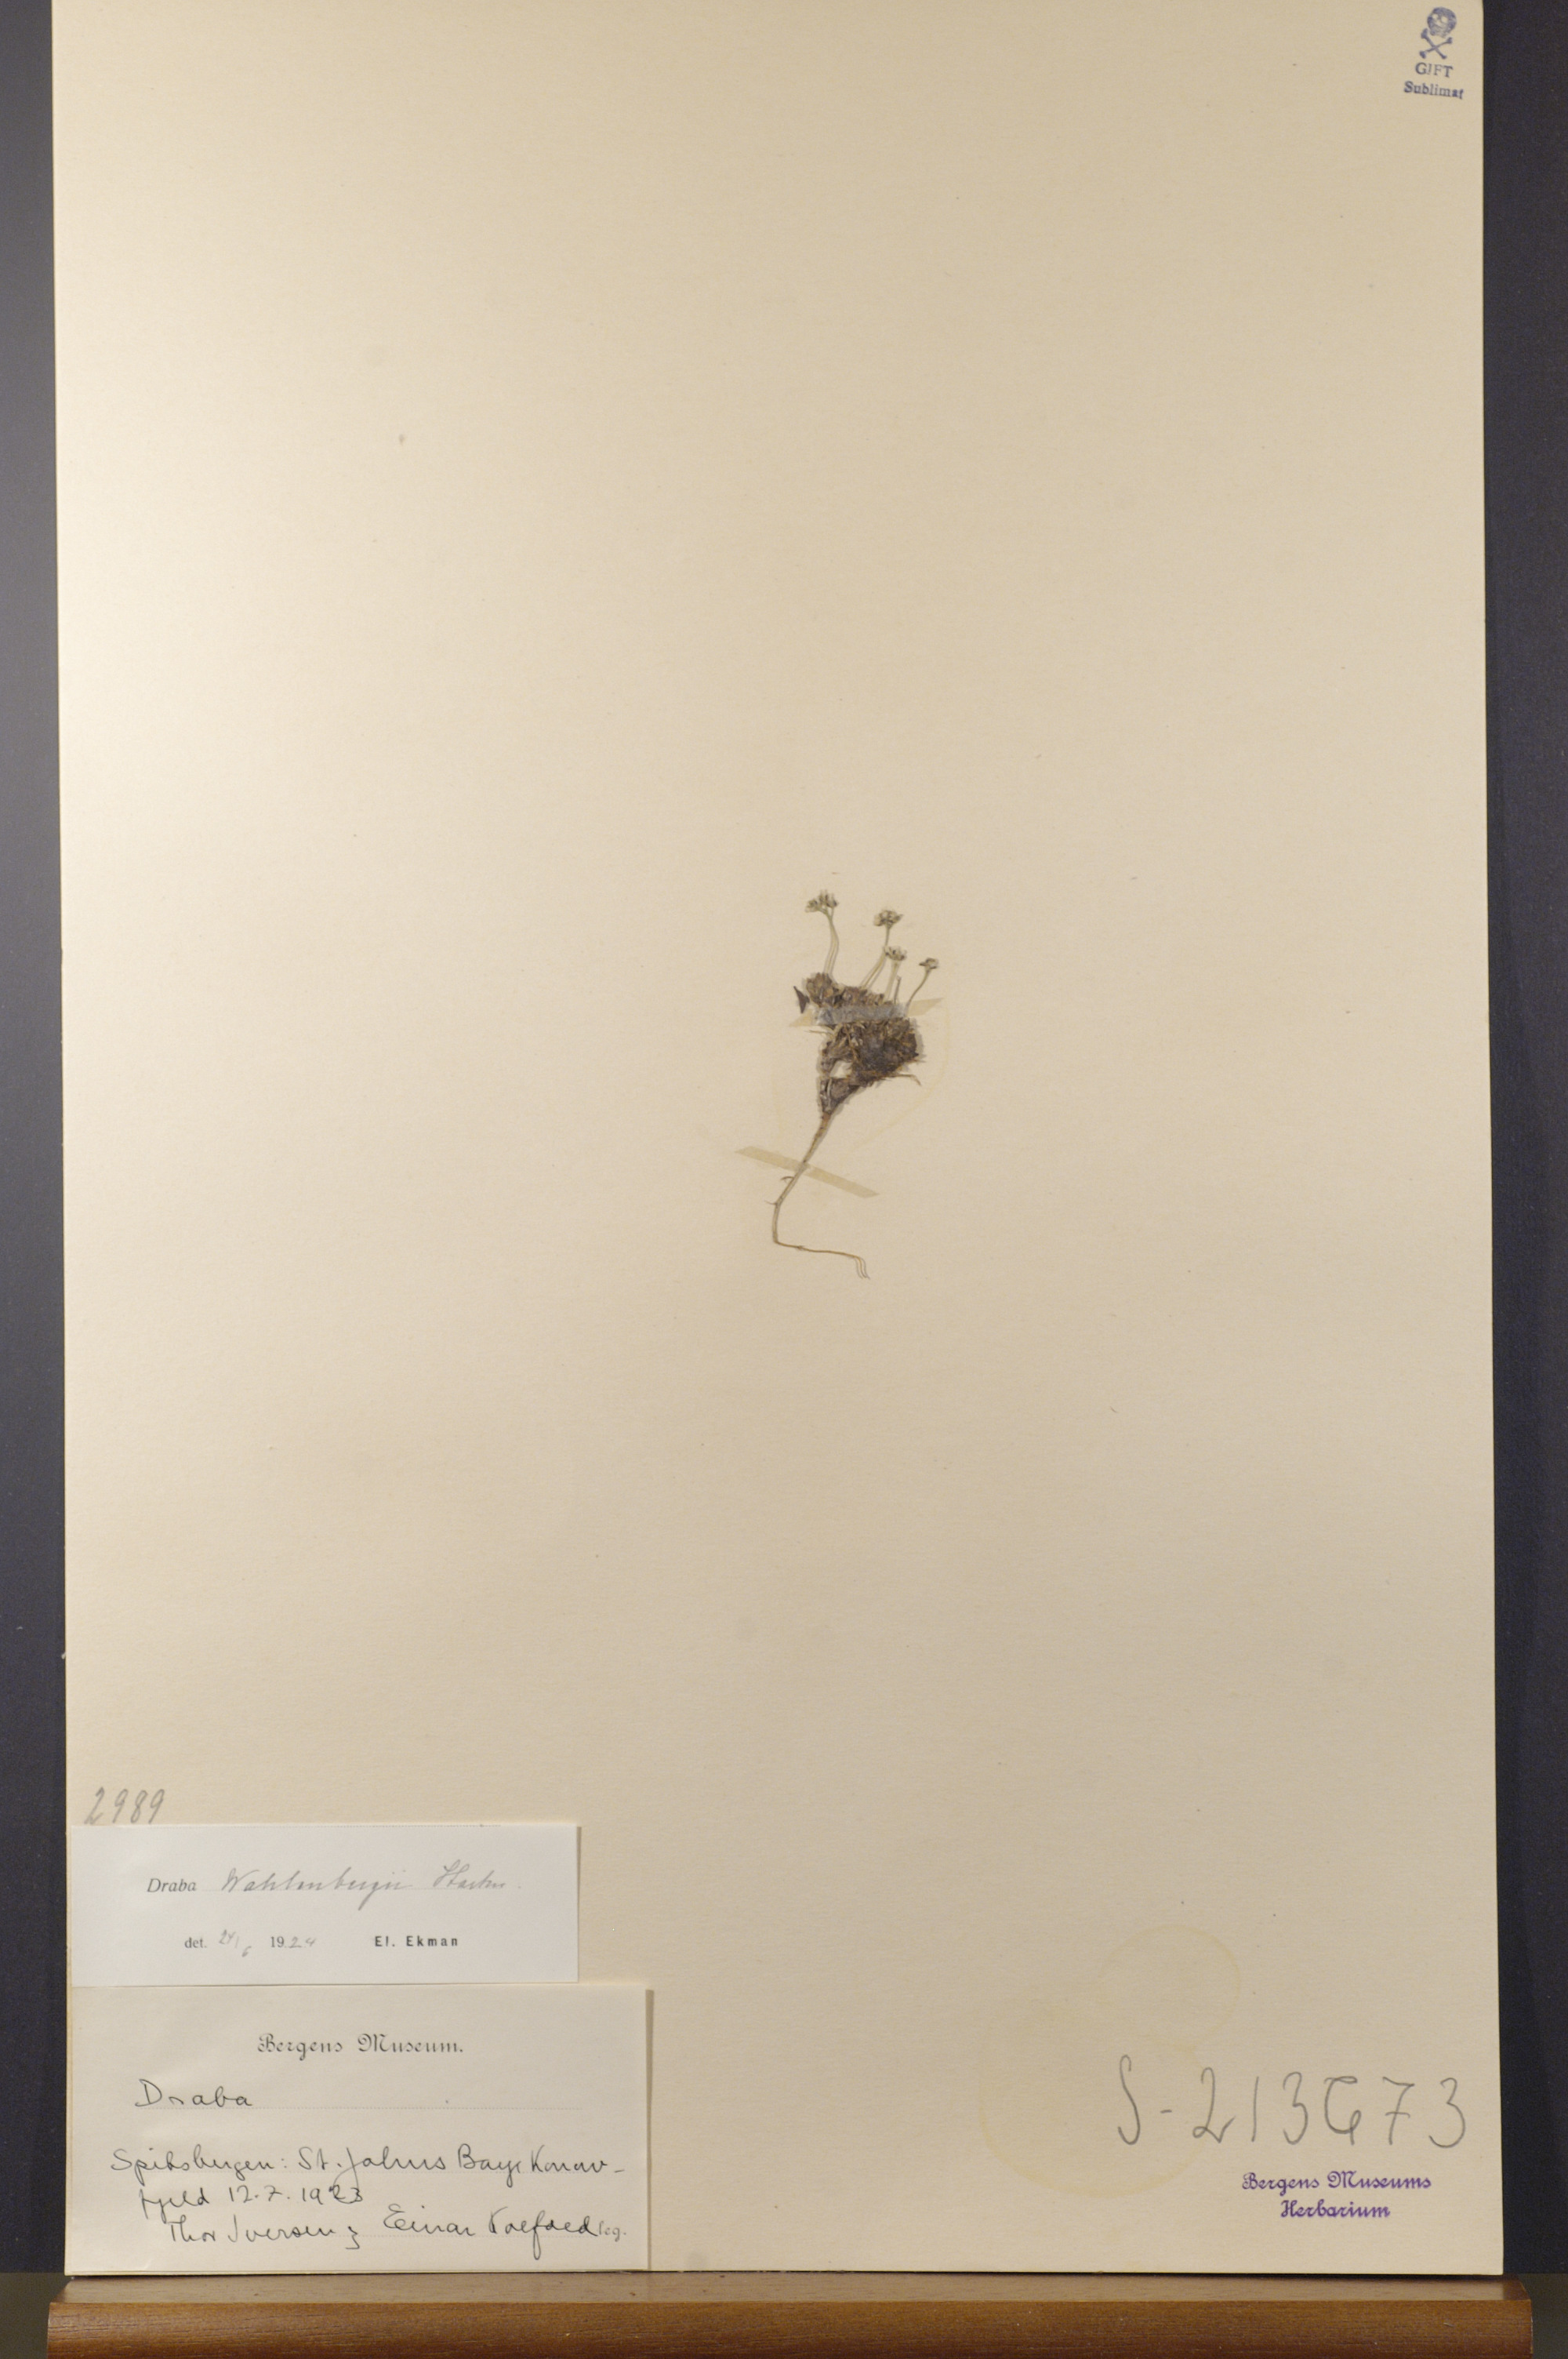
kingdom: Plantae
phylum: Tracheophyta
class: Magnoliopsida
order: Brassicales
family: Brassicaceae
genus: Draba
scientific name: Draba lactea
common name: Milky draba
